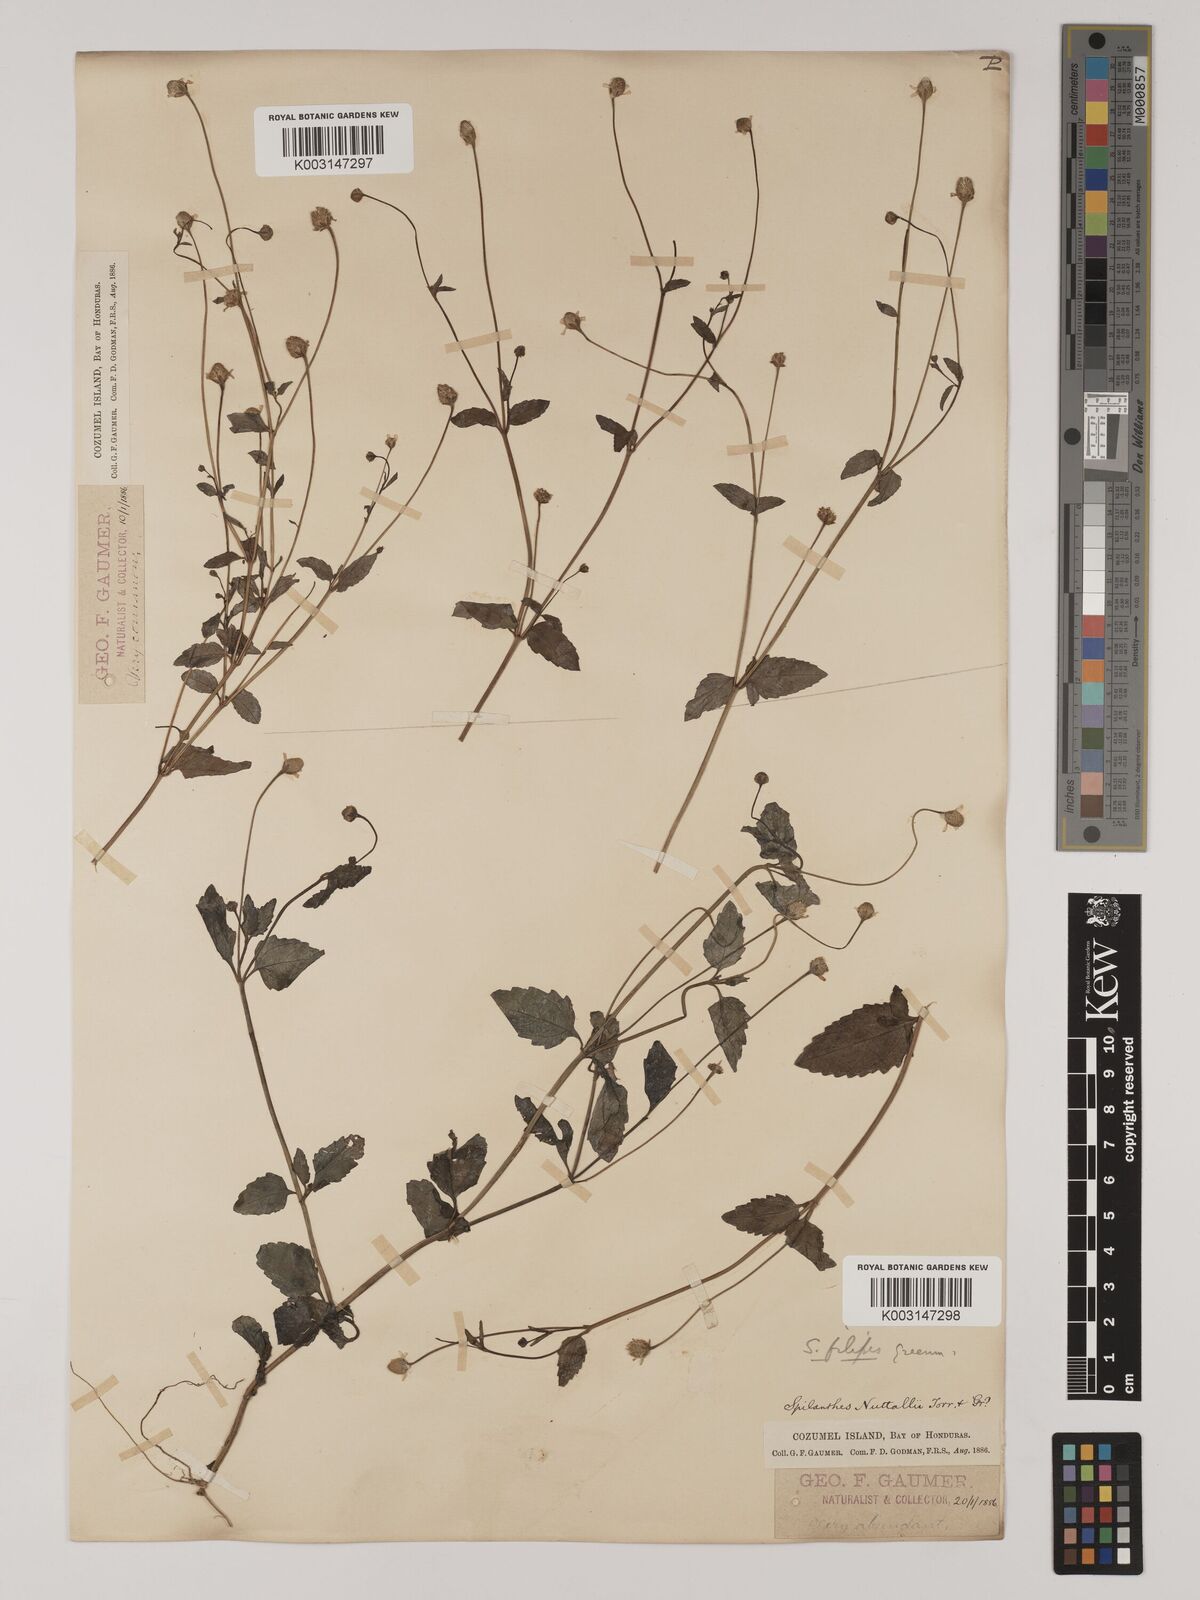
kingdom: Plantae
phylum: Tracheophyta
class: Magnoliopsida
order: Asterales
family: Asteraceae
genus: Acmella
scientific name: Acmella filipes
